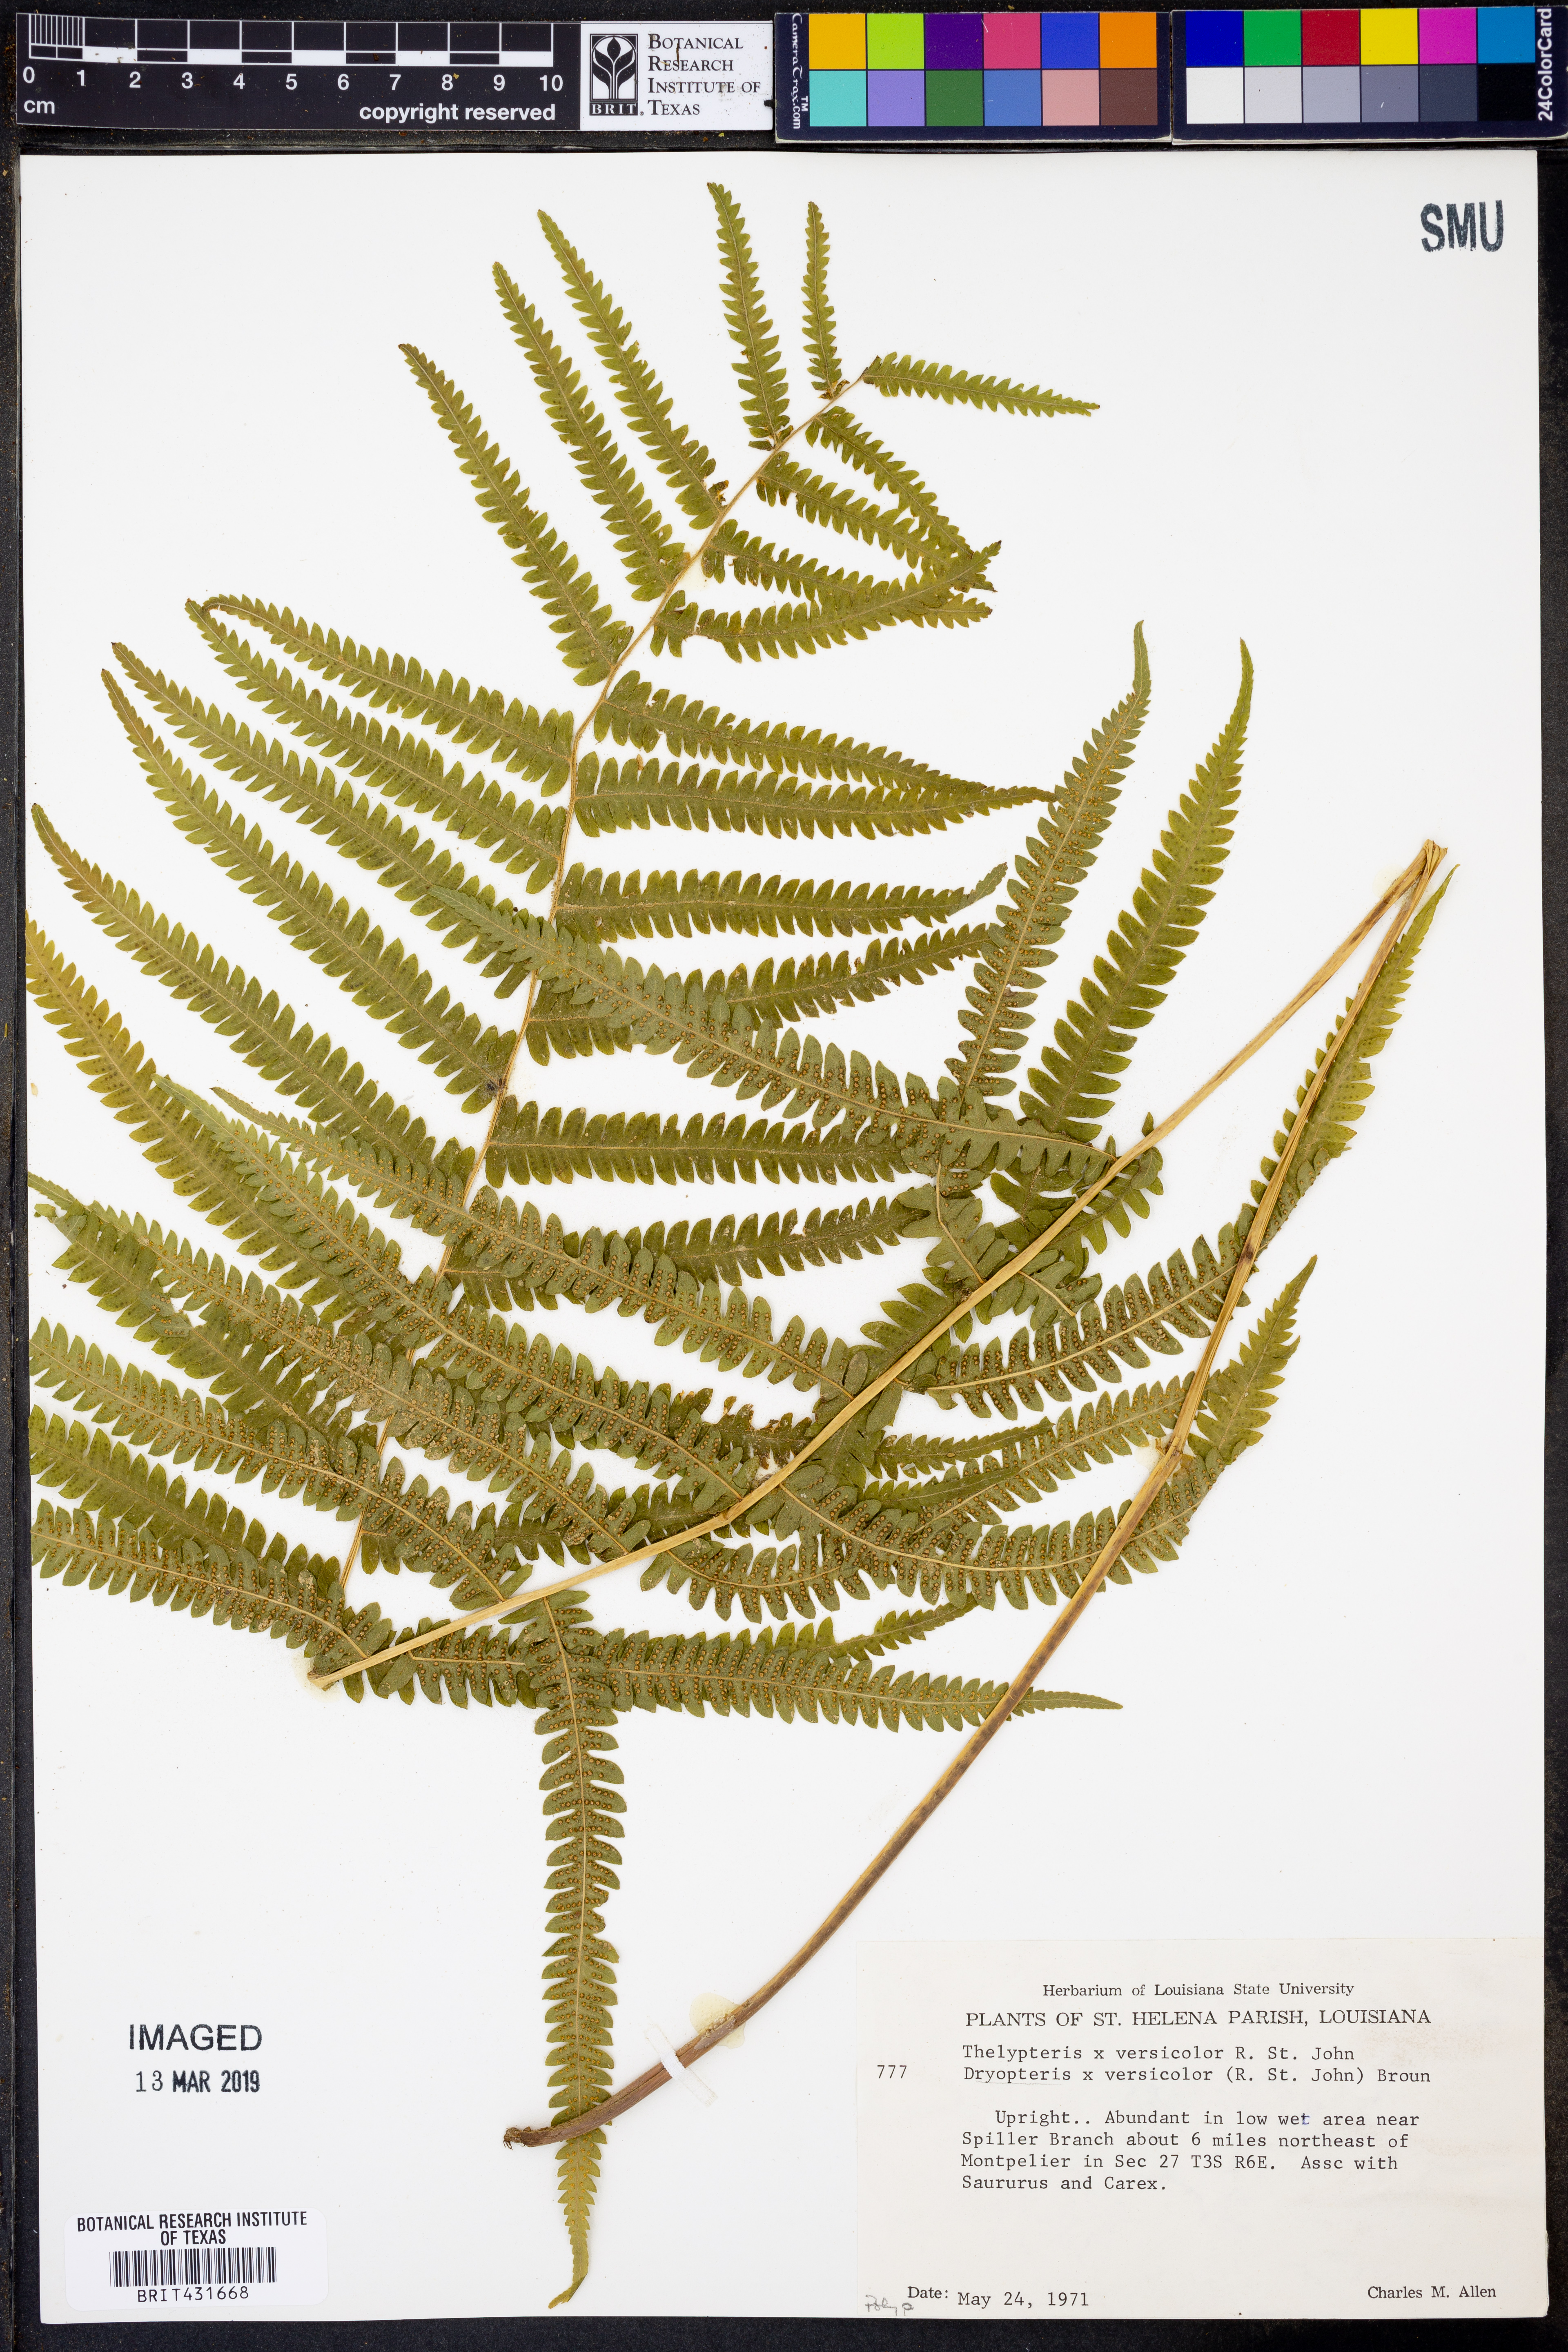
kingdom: Plantae
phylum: Tracheophyta
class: Polypodiopsida
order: Polypodiales
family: Thelypteridaceae
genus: Christella
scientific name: Christella hispidula
